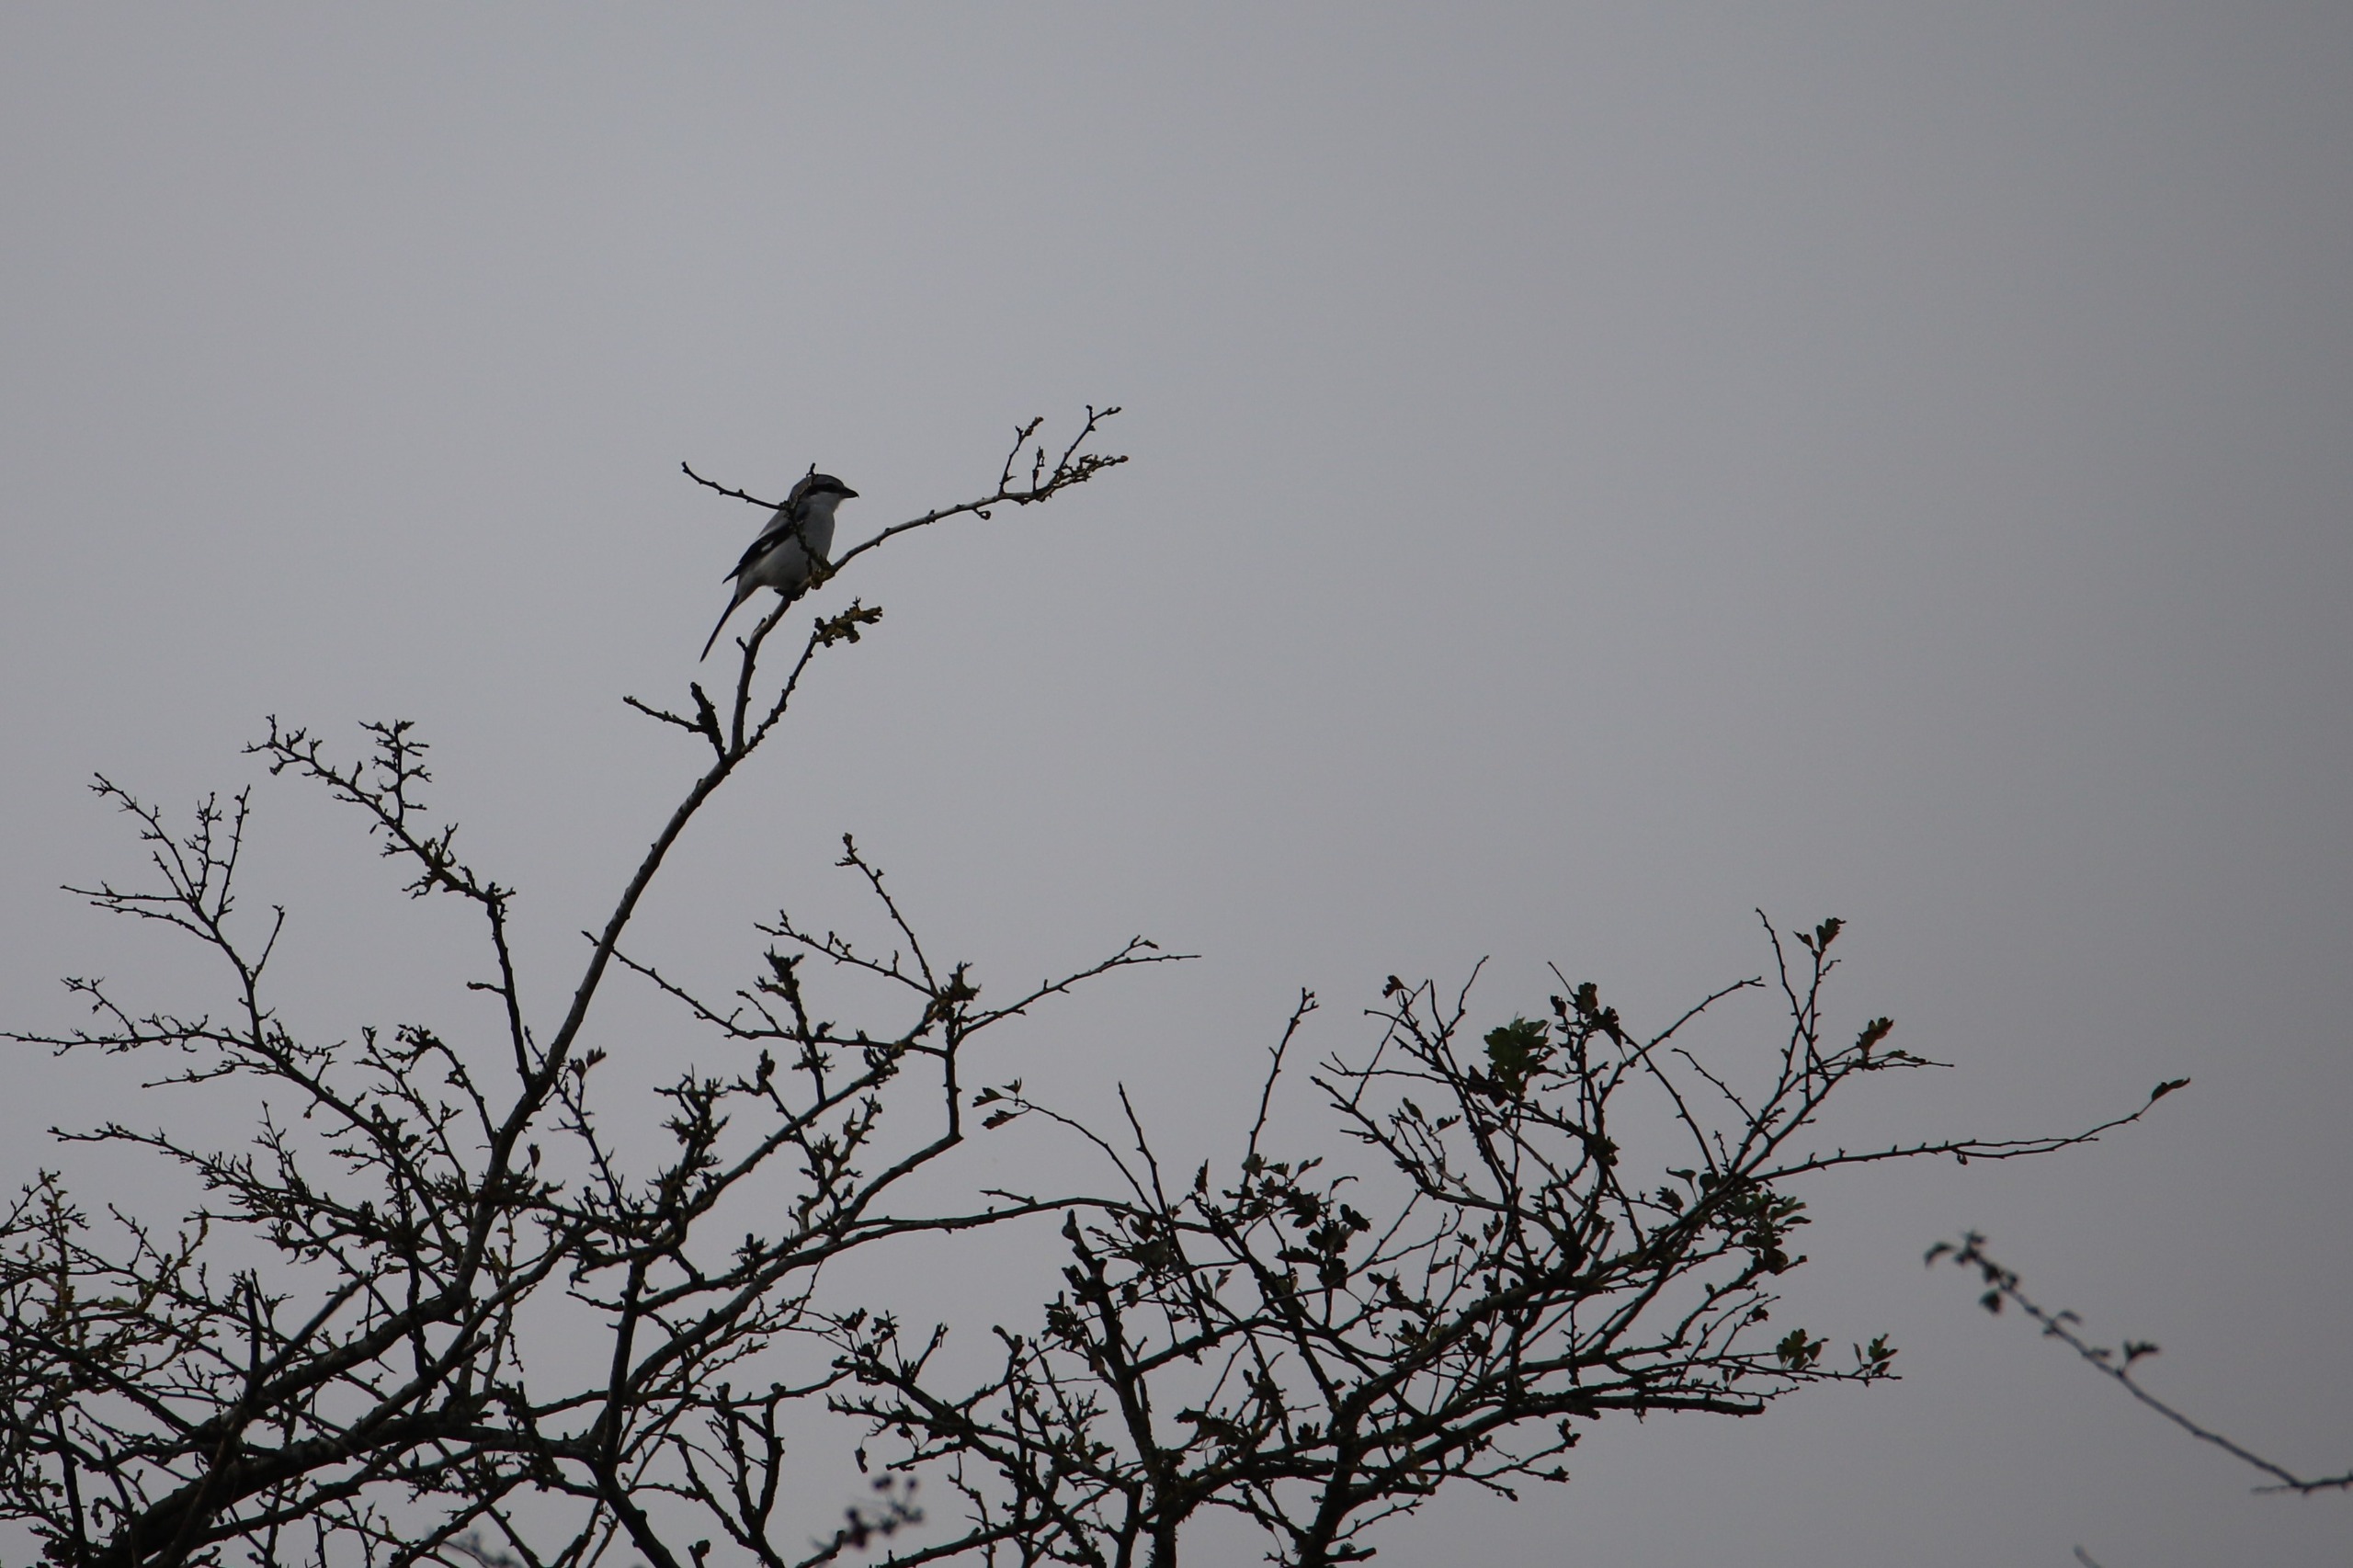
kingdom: Animalia
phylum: Chordata
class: Aves
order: Passeriformes
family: Laniidae
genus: Lanius
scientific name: Lanius excubitor
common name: Stor tornskade
